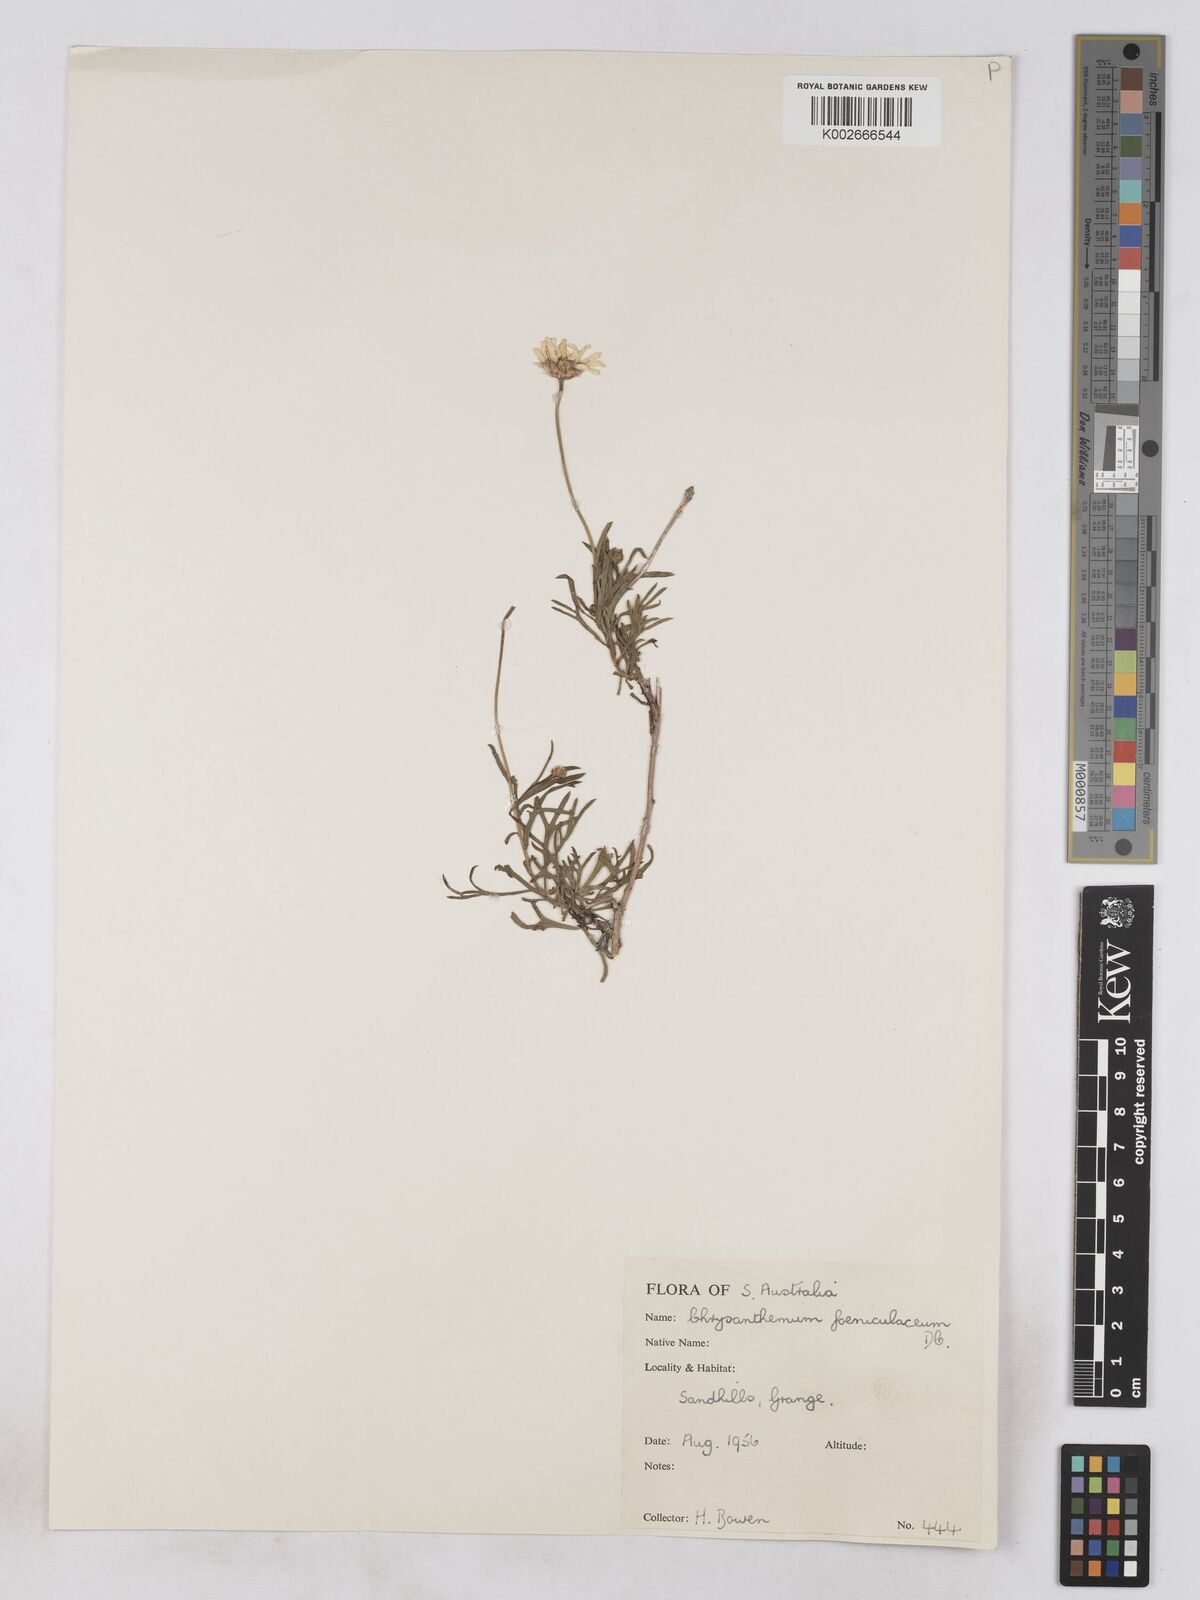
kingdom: Plantae
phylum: Tracheophyta
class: Magnoliopsida
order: Asterales
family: Asteraceae
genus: Argyranthemum
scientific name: Argyranthemum
